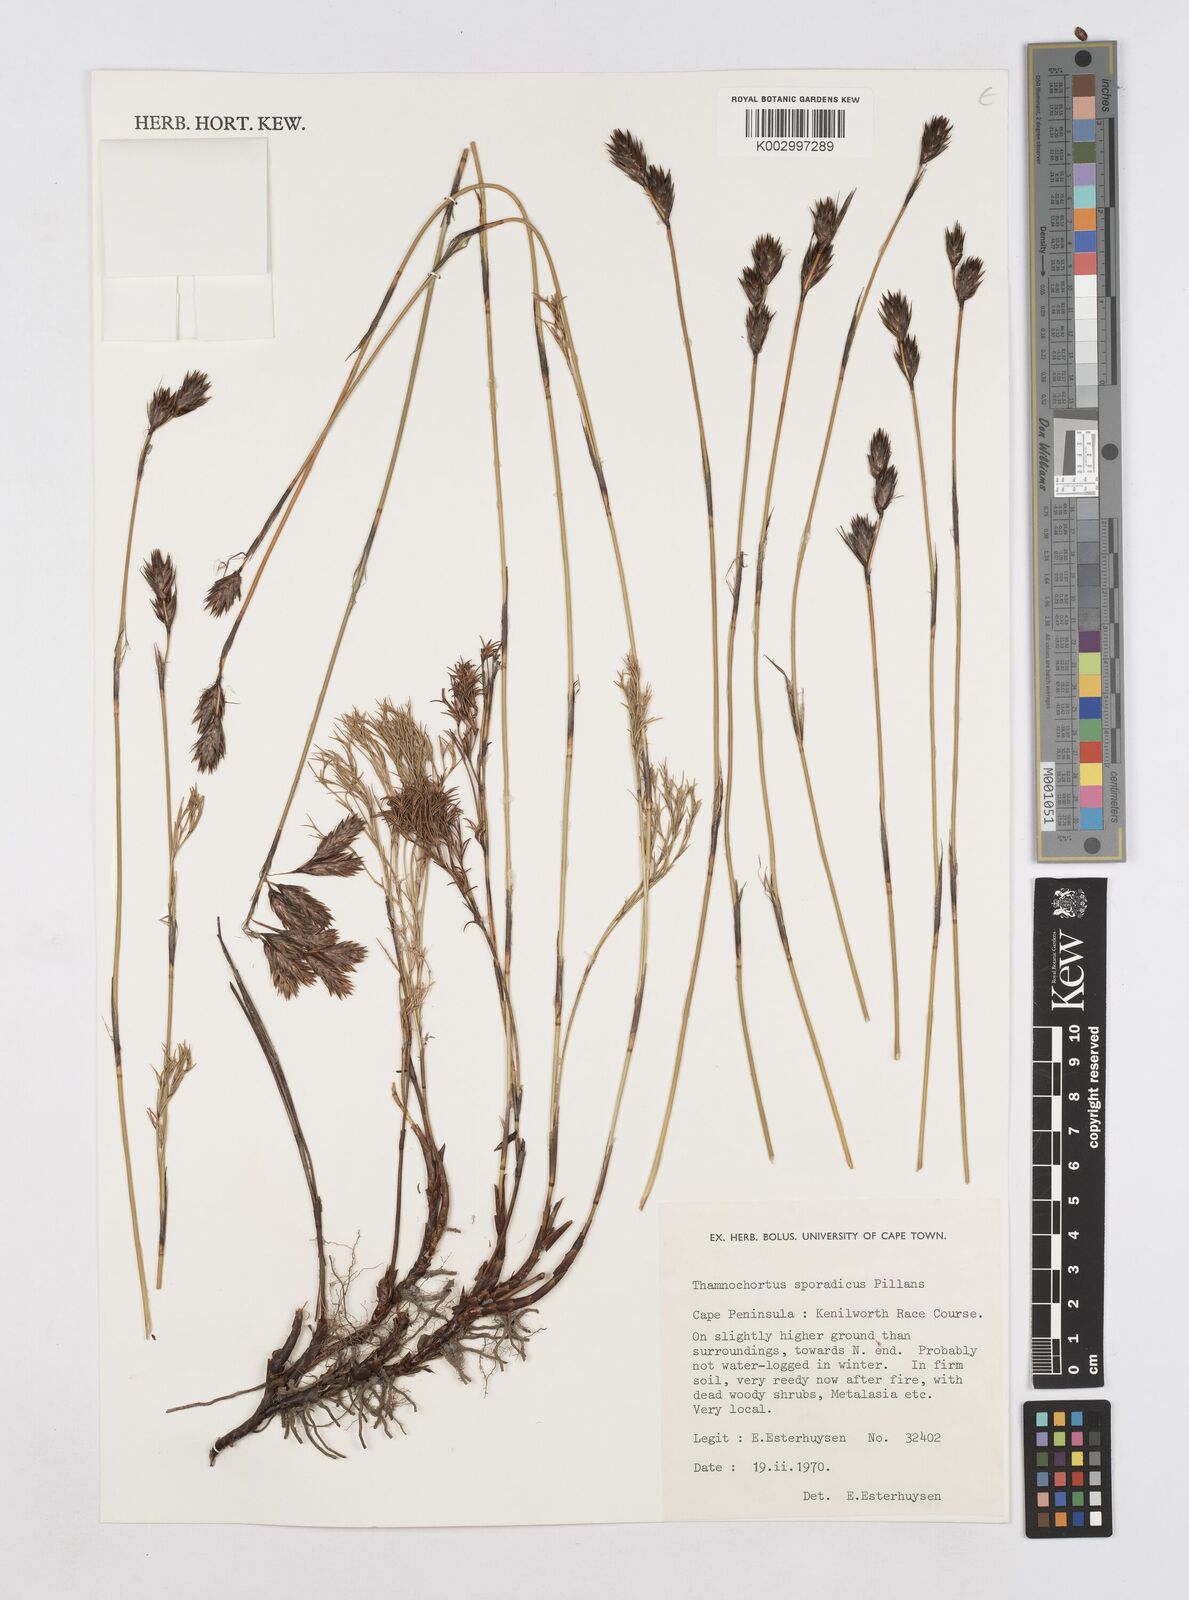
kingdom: Plantae
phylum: Tracheophyta
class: Liliopsida
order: Poales
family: Restionaceae
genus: Thamnochortus
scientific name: Thamnochortus sporadicus
